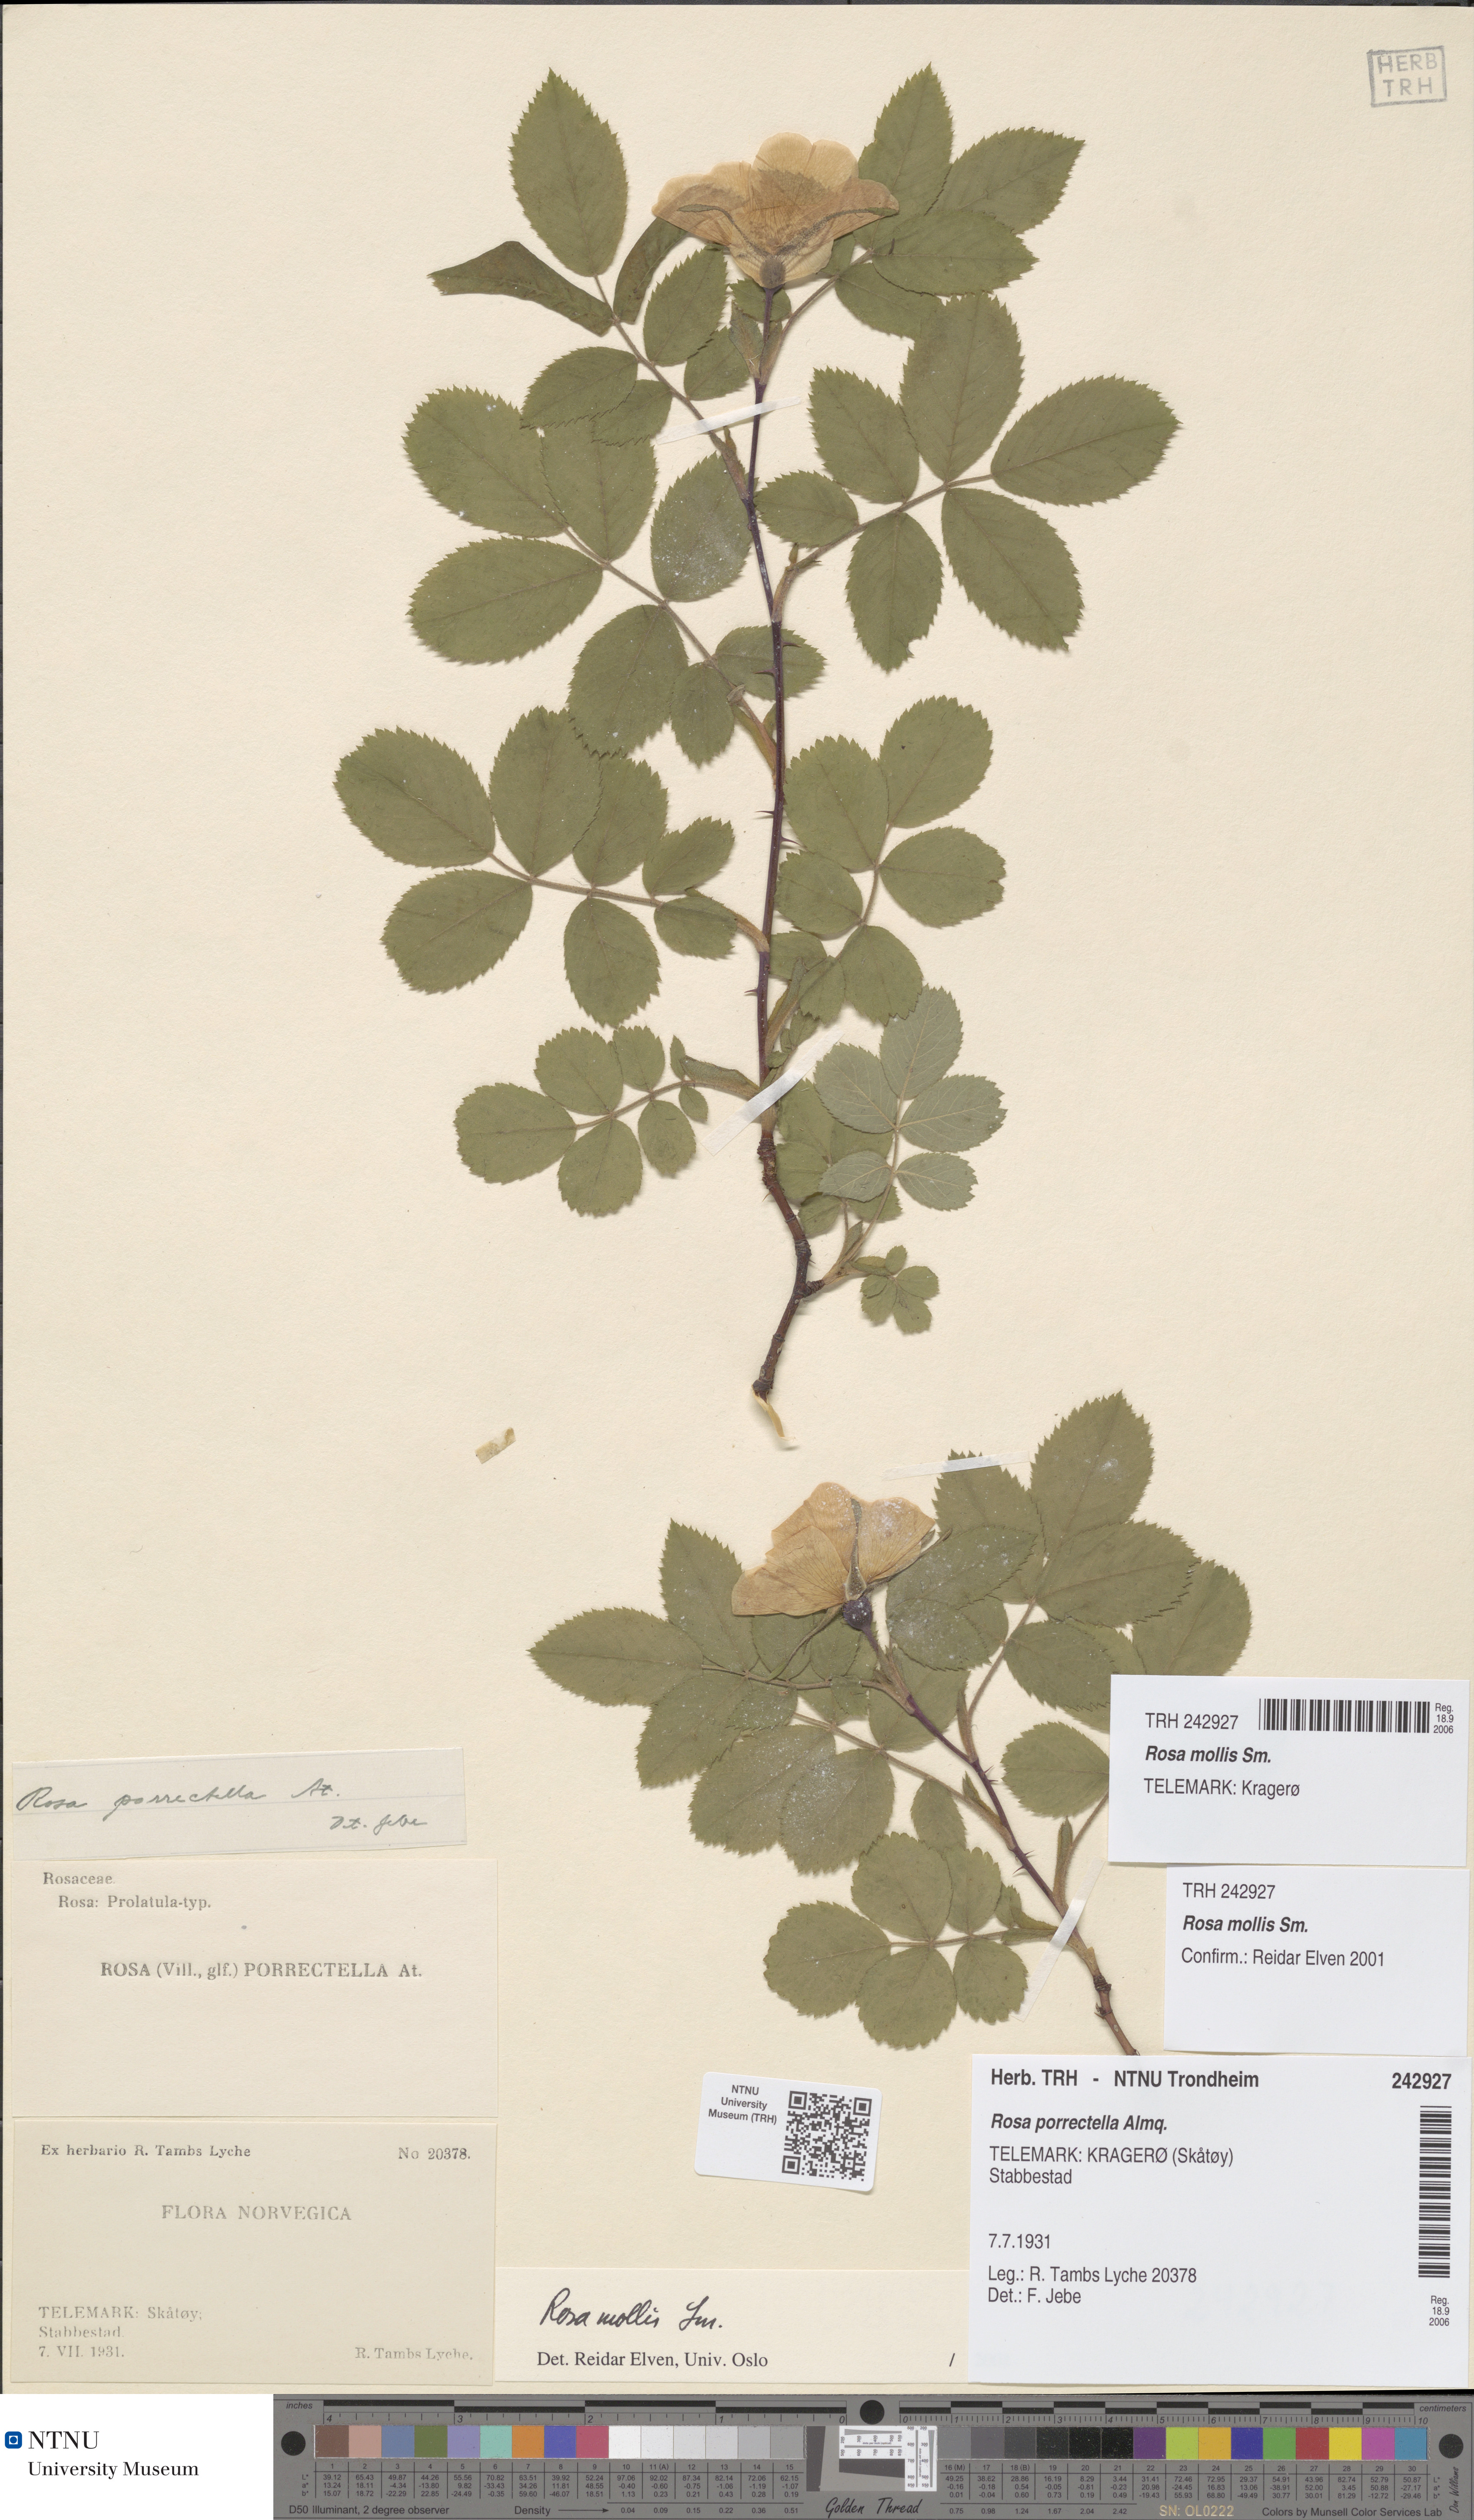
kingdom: Plantae
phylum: Tracheophyta
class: Magnoliopsida
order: Rosales
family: Rosaceae
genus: Rosa
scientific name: Rosa mollis
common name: Rose
